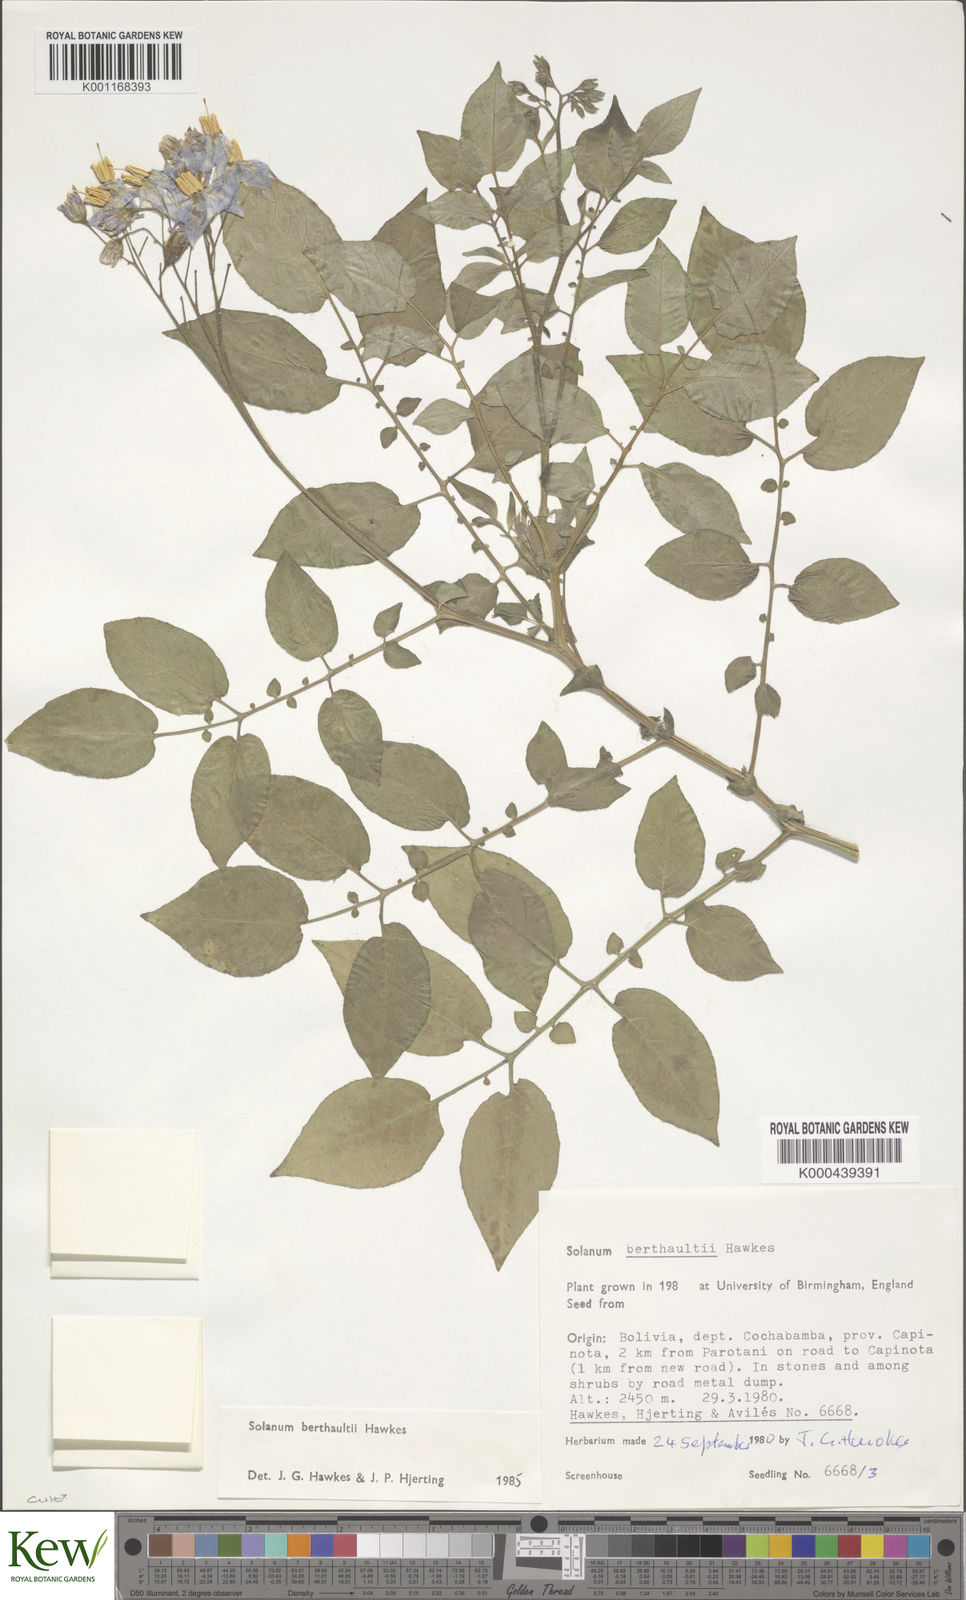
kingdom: Plantae
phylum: Tracheophyta
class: Magnoliopsida
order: Solanales
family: Solanaceae
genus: Solanum
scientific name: Solanum berthaultii
